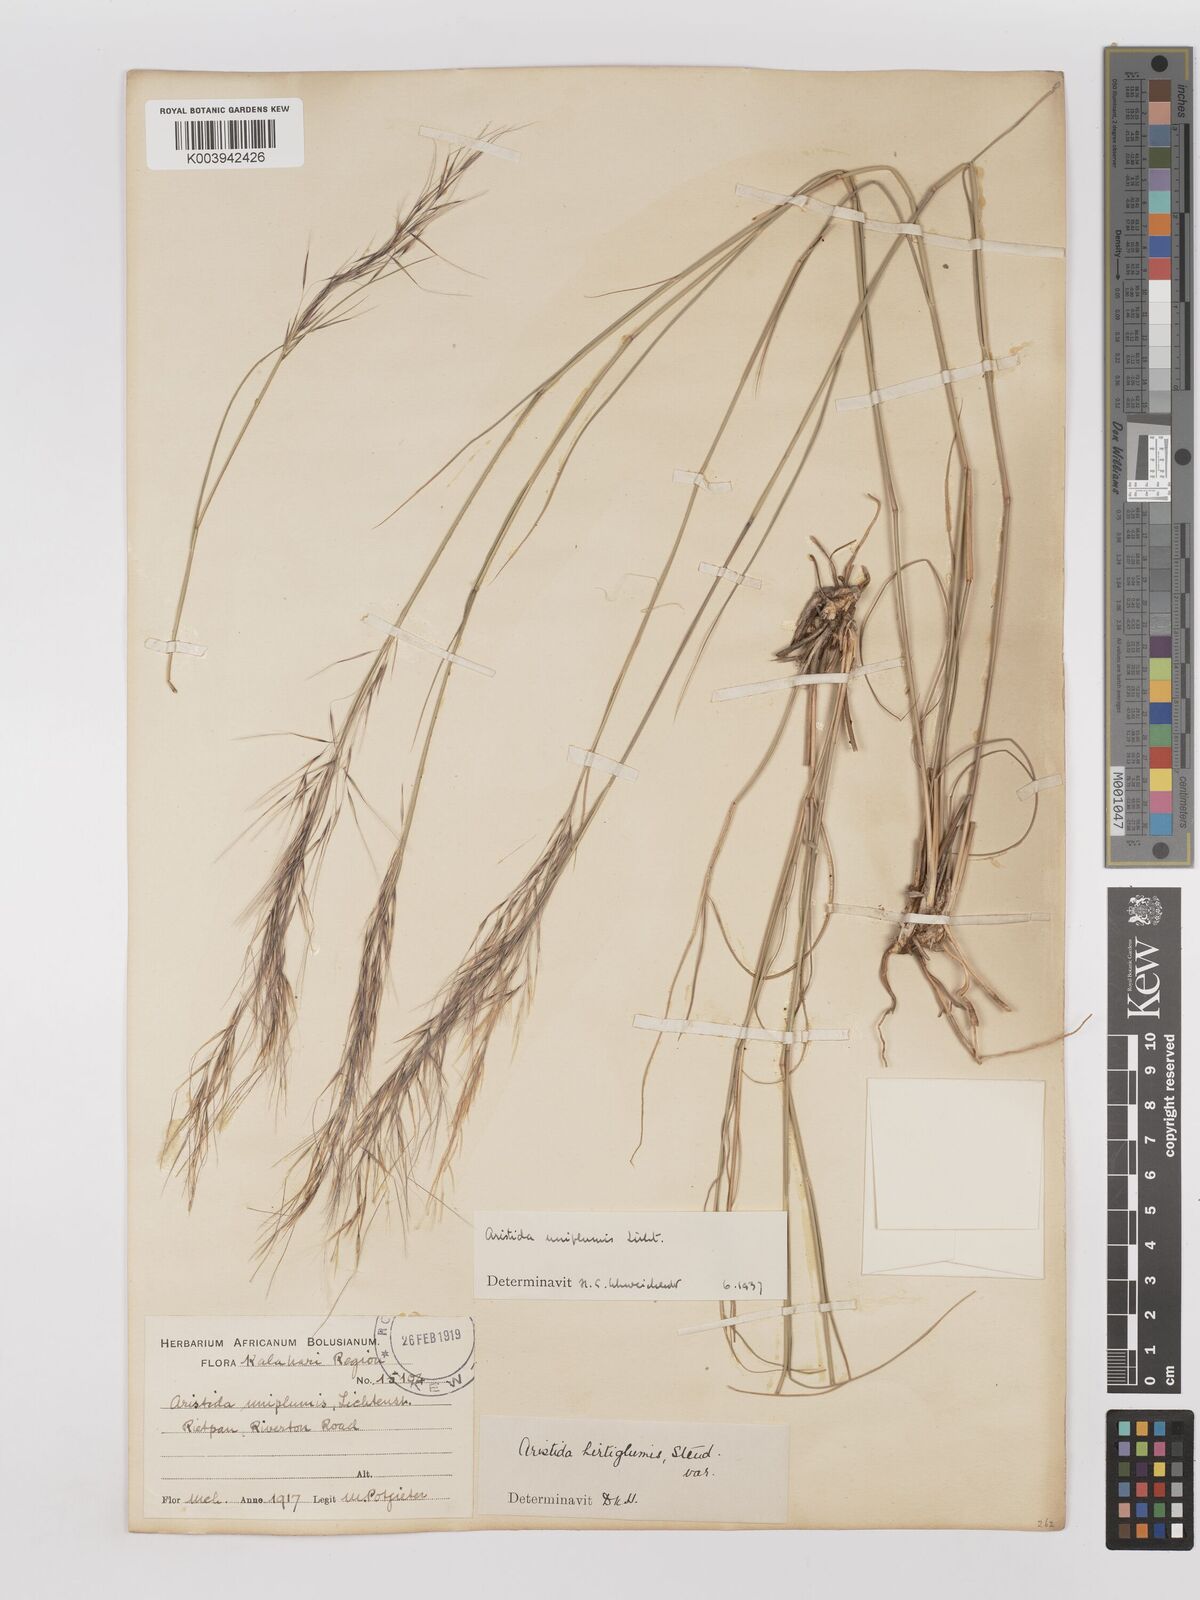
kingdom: Plantae
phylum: Tracheophyta
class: Liliopsida
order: Poales
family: Poaceae
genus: Stipagrostis
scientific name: Stipagrostis uniplumis
